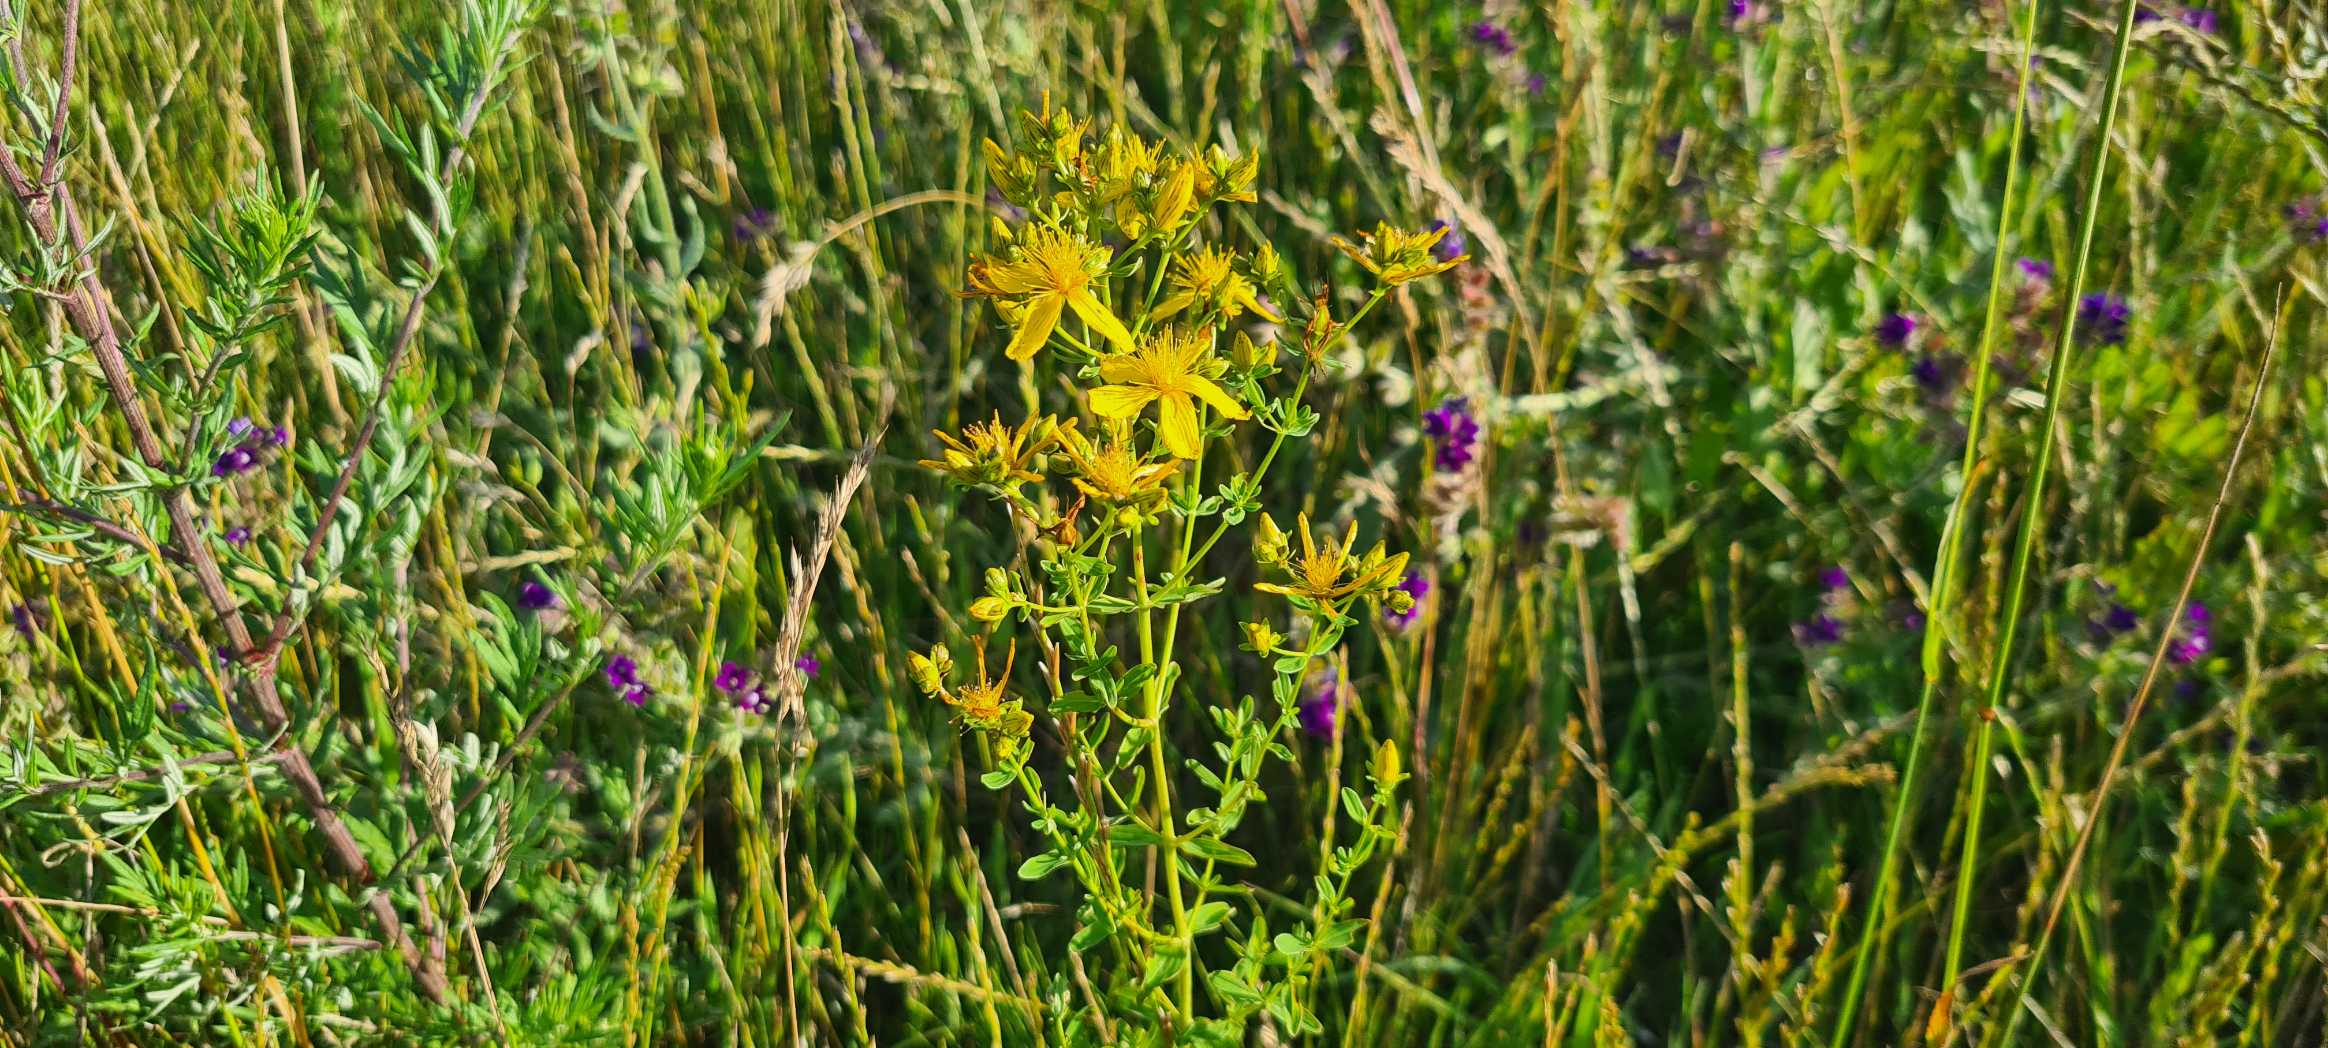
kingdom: Plantae
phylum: Tracheophyta
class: Magnoliopsida
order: Malpighiales
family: Hypericaceae
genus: Hypericum
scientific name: Hypericum perforatum
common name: Prikbladet perikon
